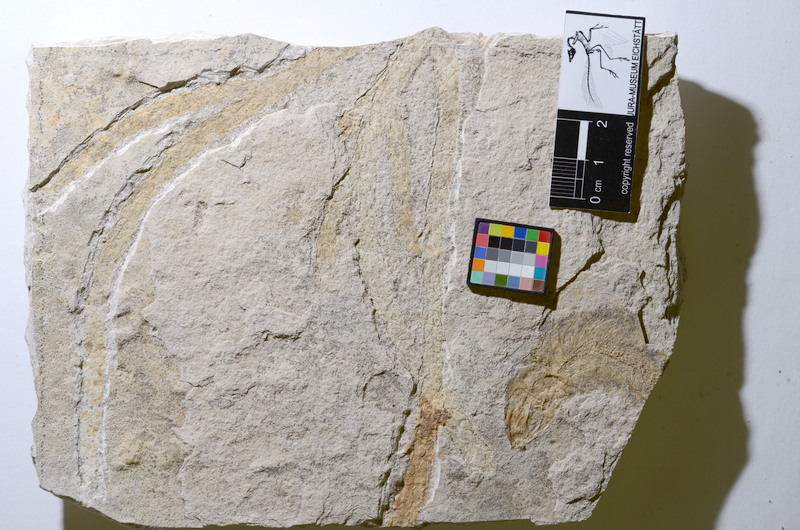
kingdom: Animalia
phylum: Chordata
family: Ascalaboidae
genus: Tharsis
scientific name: Tharsis
